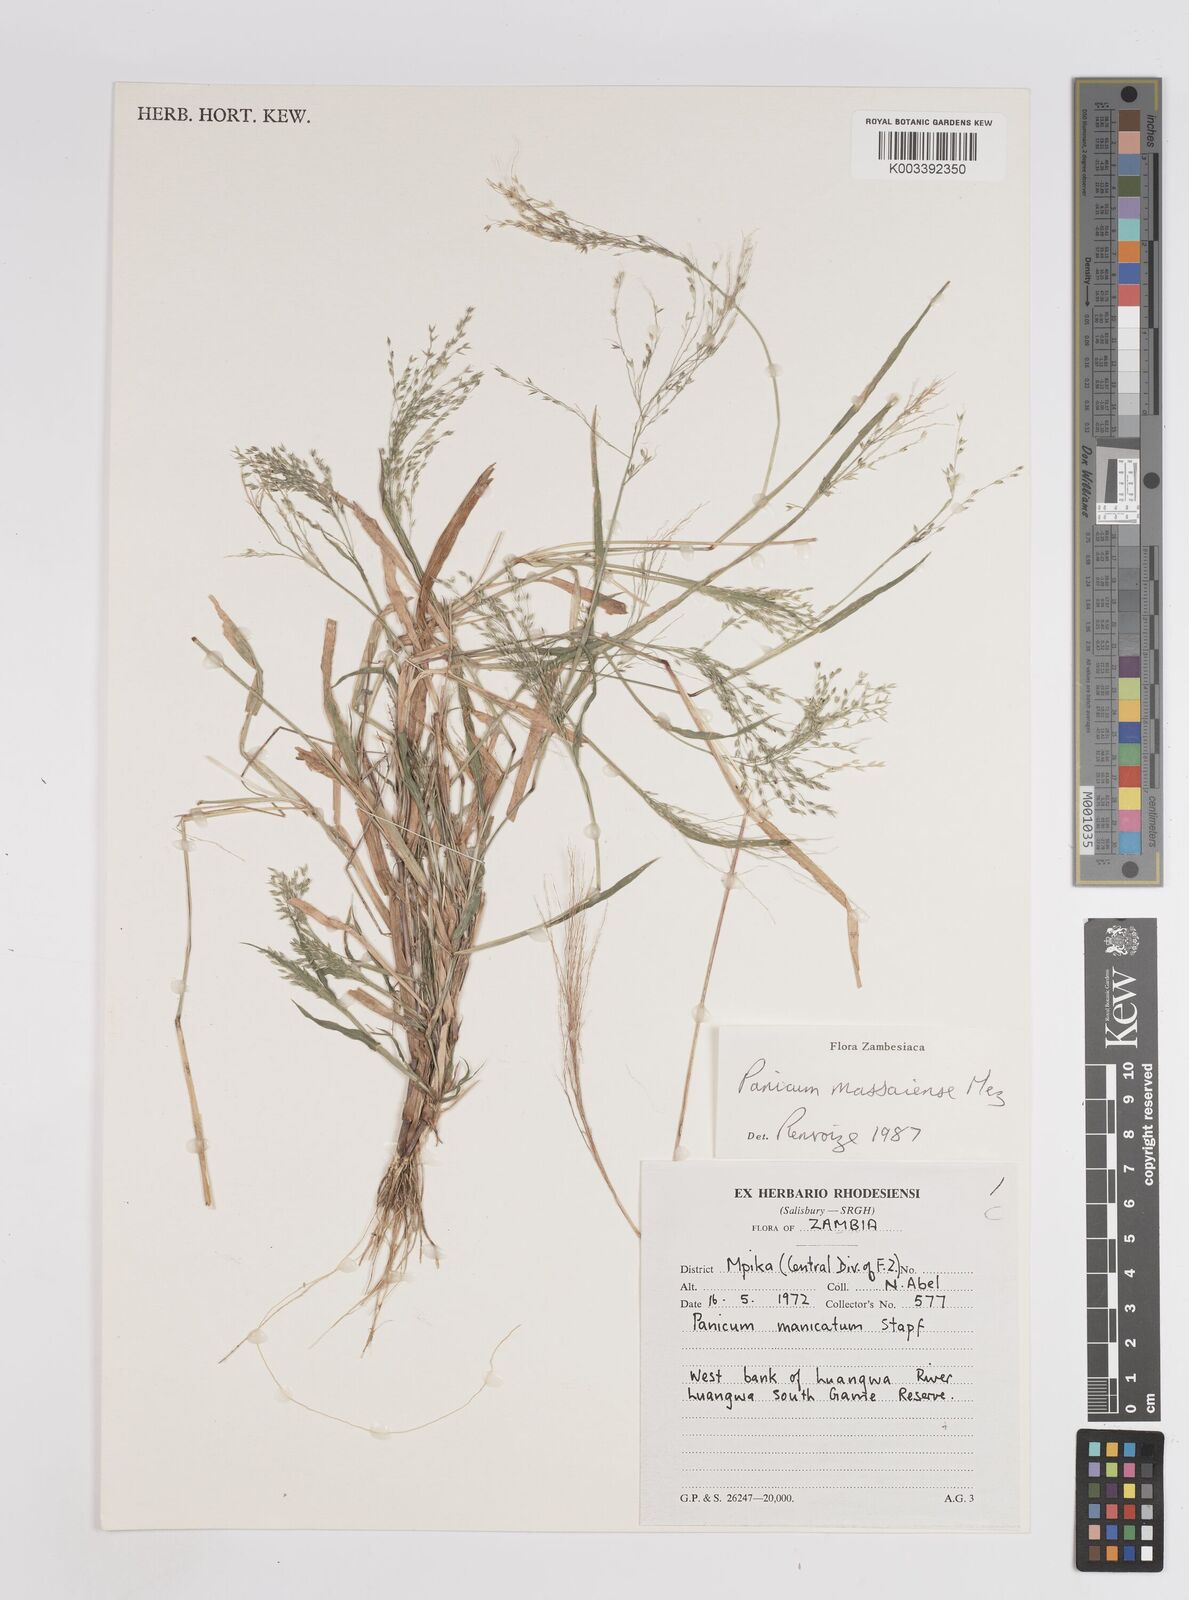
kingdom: Plantae
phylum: Tracheophyta
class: Liliopsida
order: Poales
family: Poaceae
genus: Panicum
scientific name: Panicum massaiense
